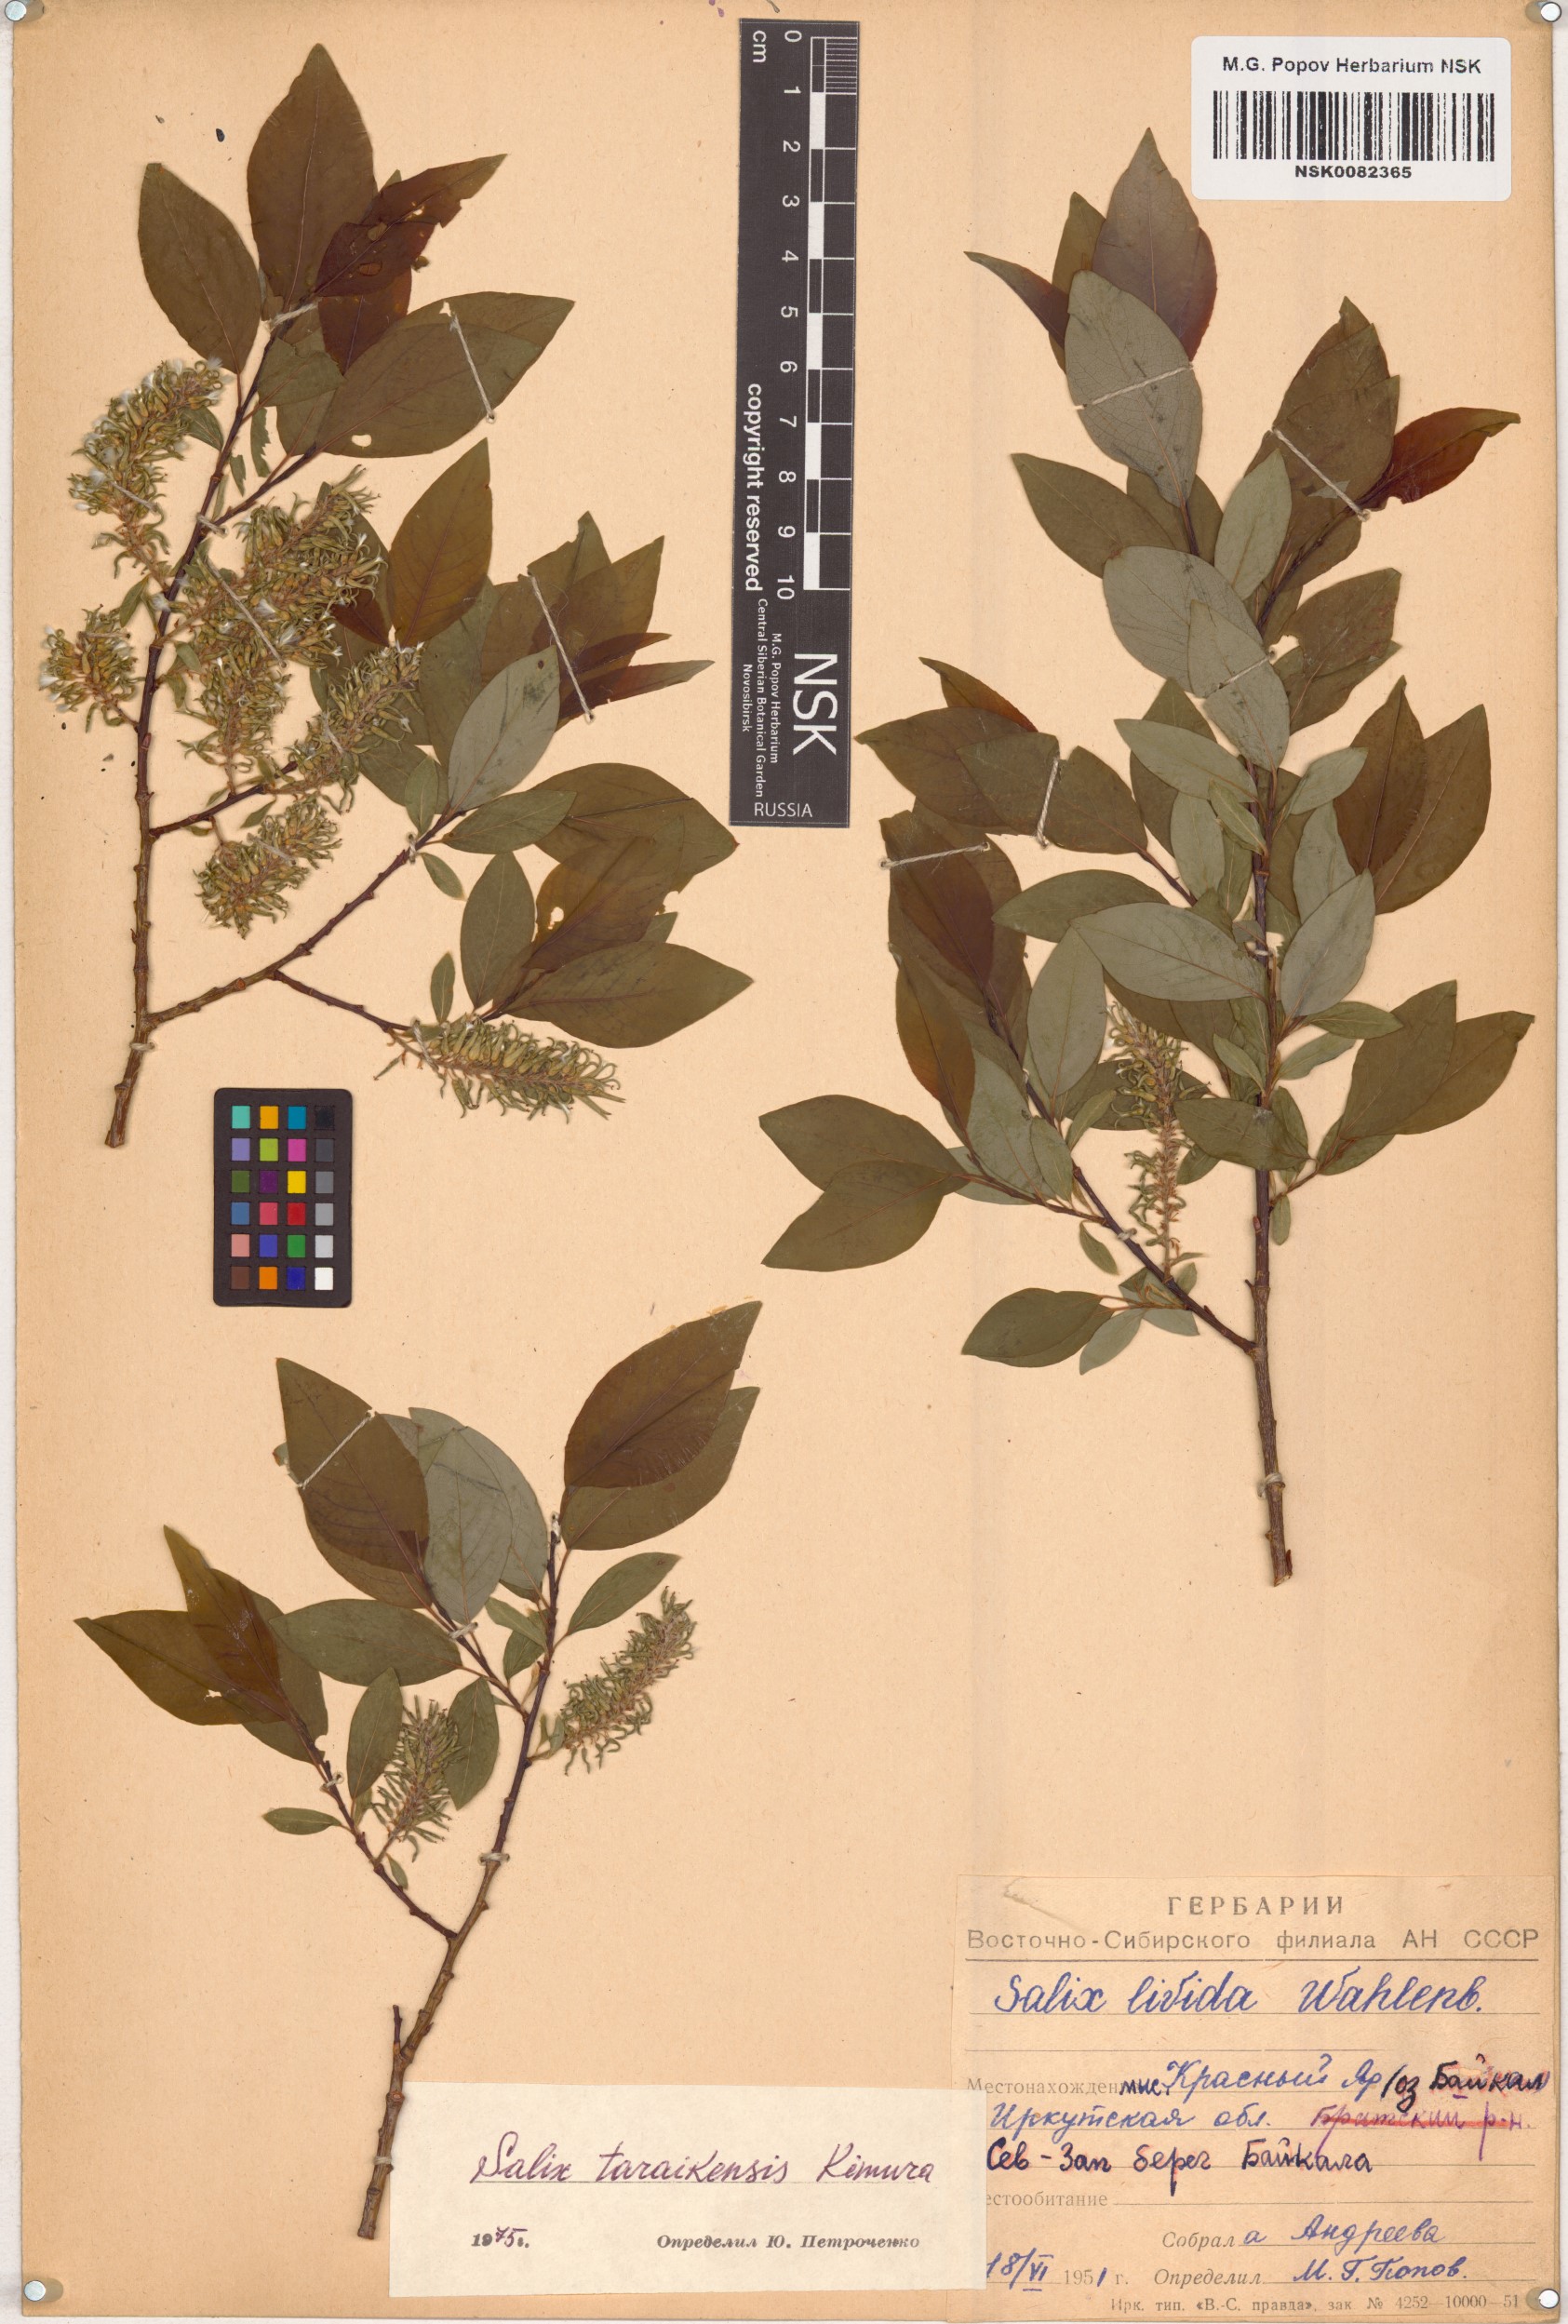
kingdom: Plantae
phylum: Tracheophyta
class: Magnoliopsida
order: Malpighiales
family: Salicaceae
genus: Salix
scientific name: Salix taraikensis
